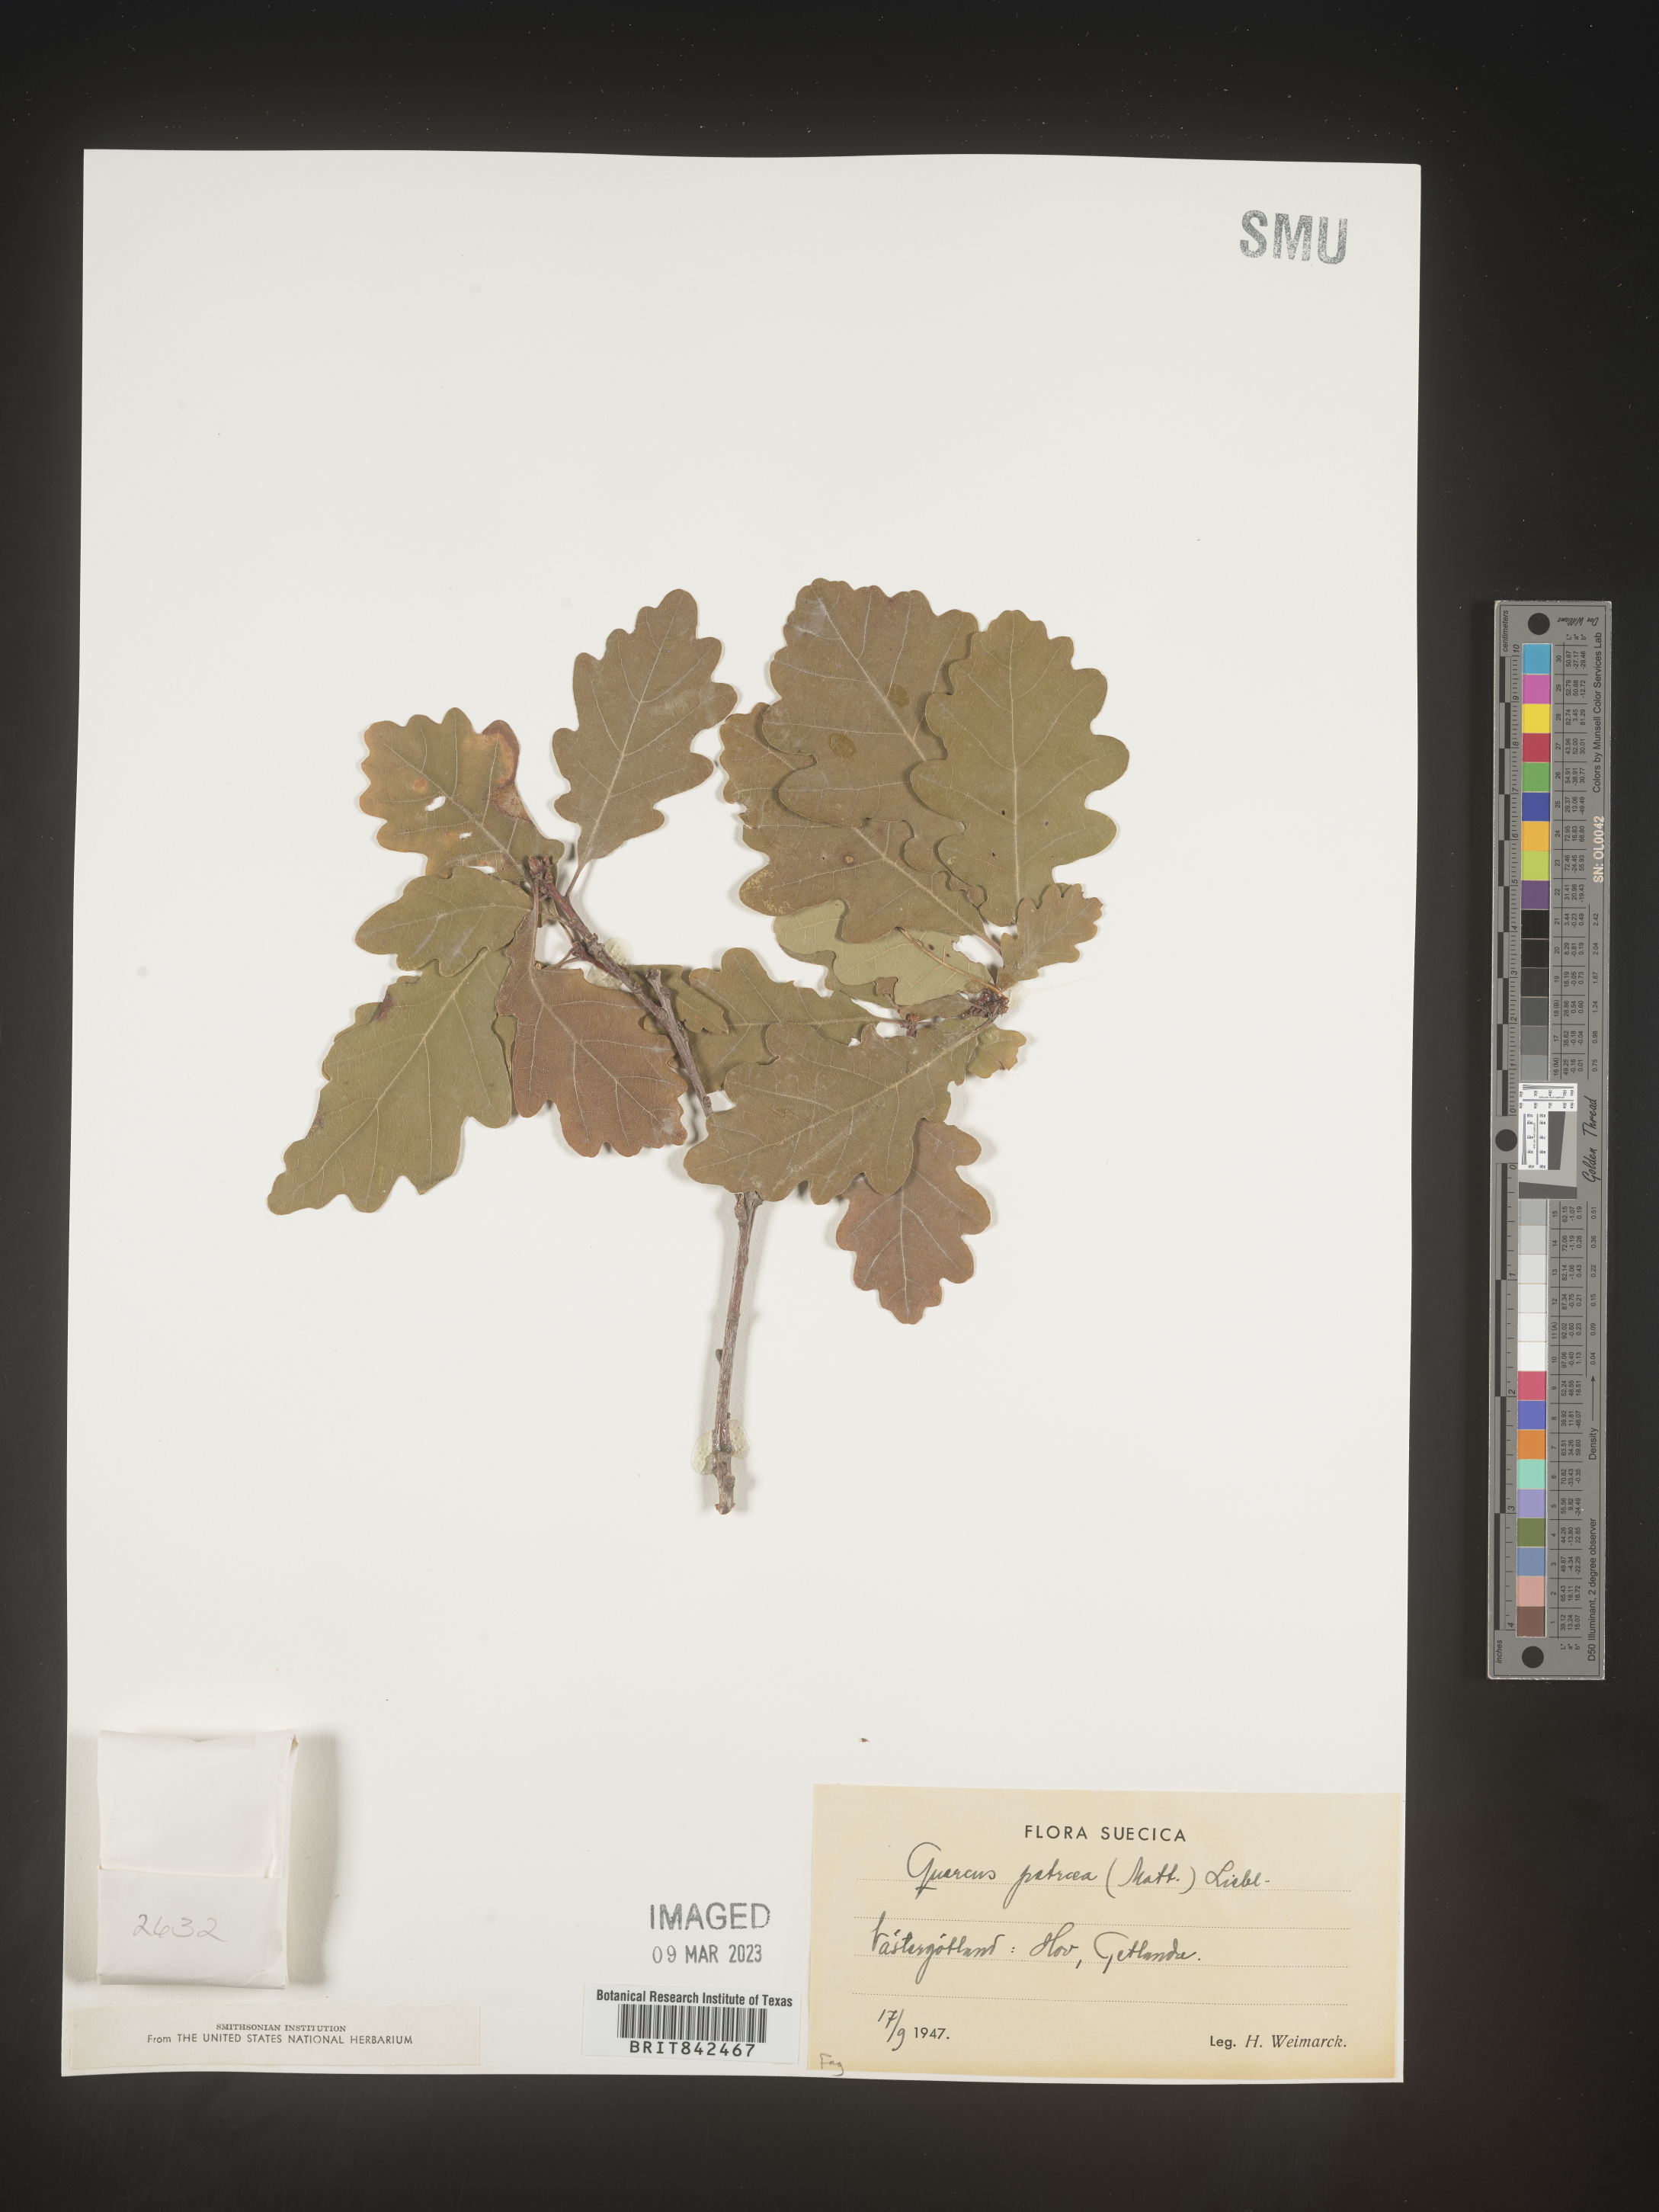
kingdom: Plantae
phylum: Tracheophyta
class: Magnoliopsida
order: Fagales
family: Fagaceae
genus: Quercus
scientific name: Quercus
